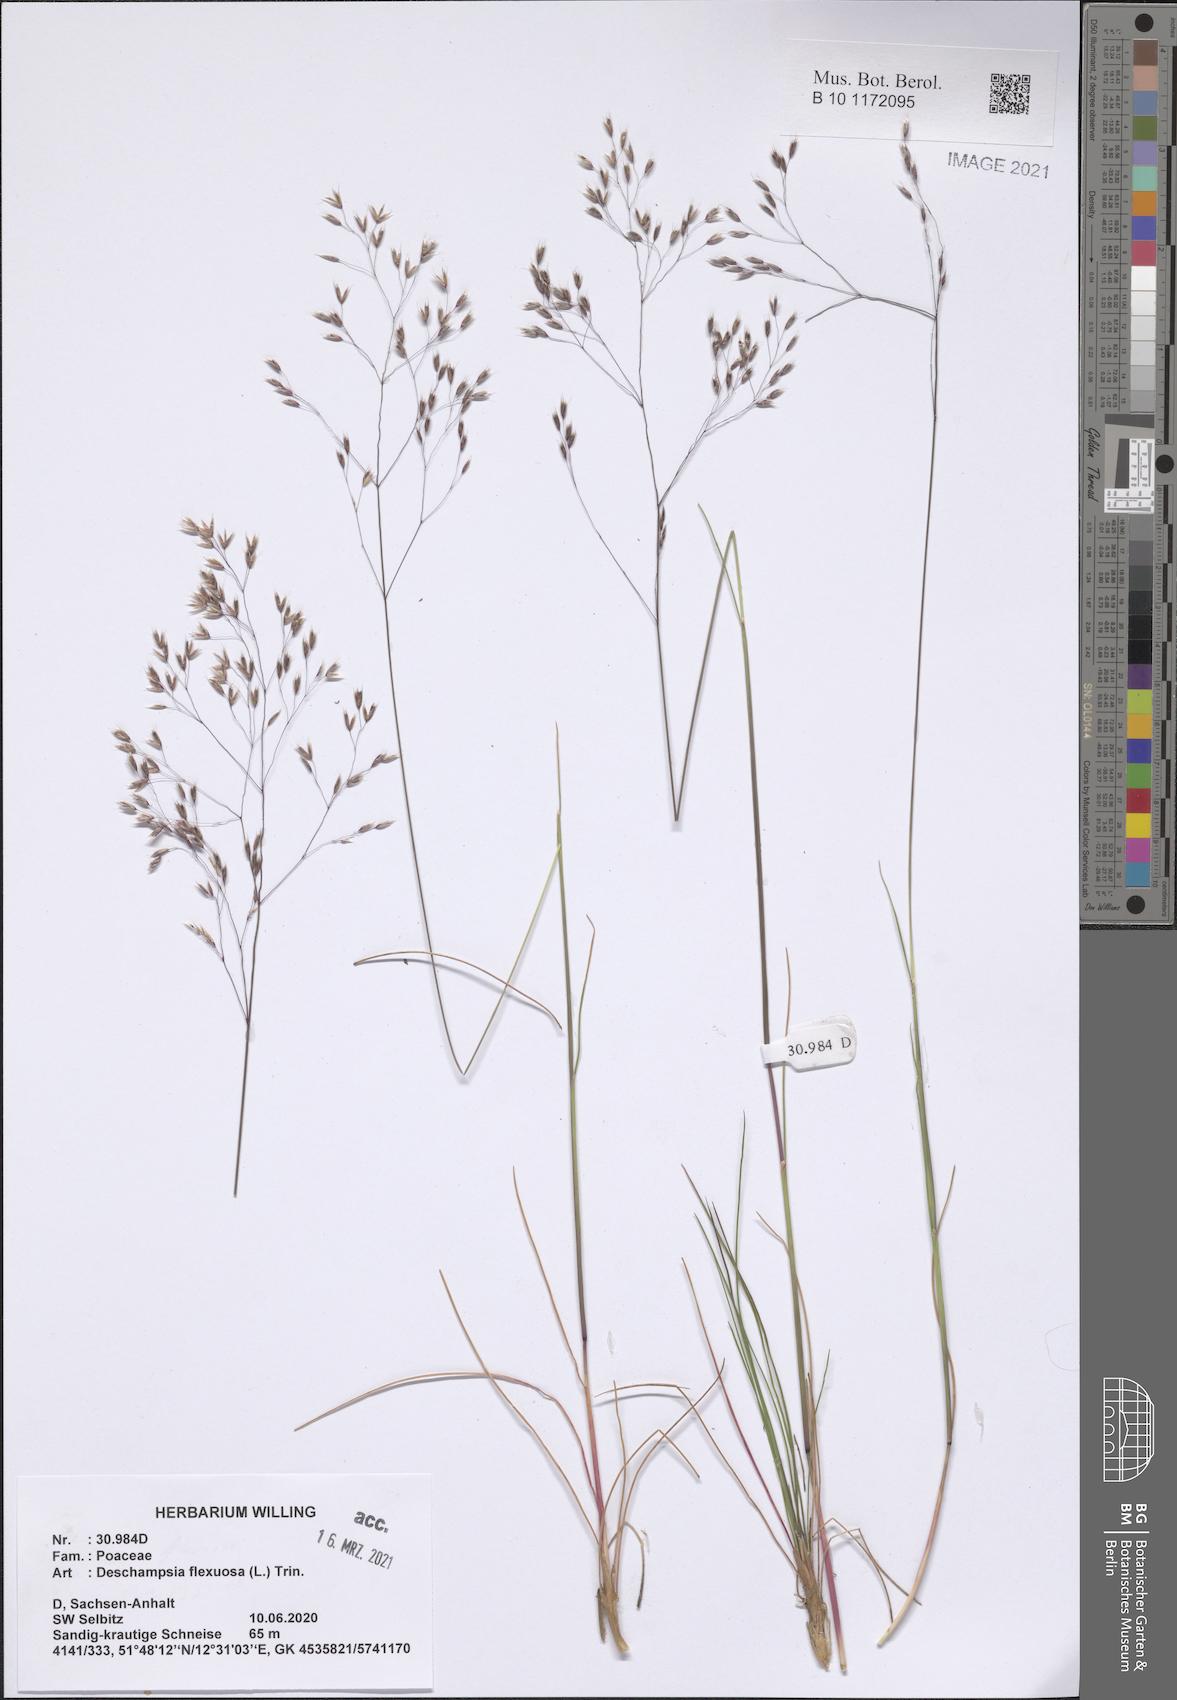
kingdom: Plantae
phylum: Tracheophyta
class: Liliopsida
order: Poales
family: Poaceae
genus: Avenella
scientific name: Avenella flexuosa
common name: Wavy hairgrass
